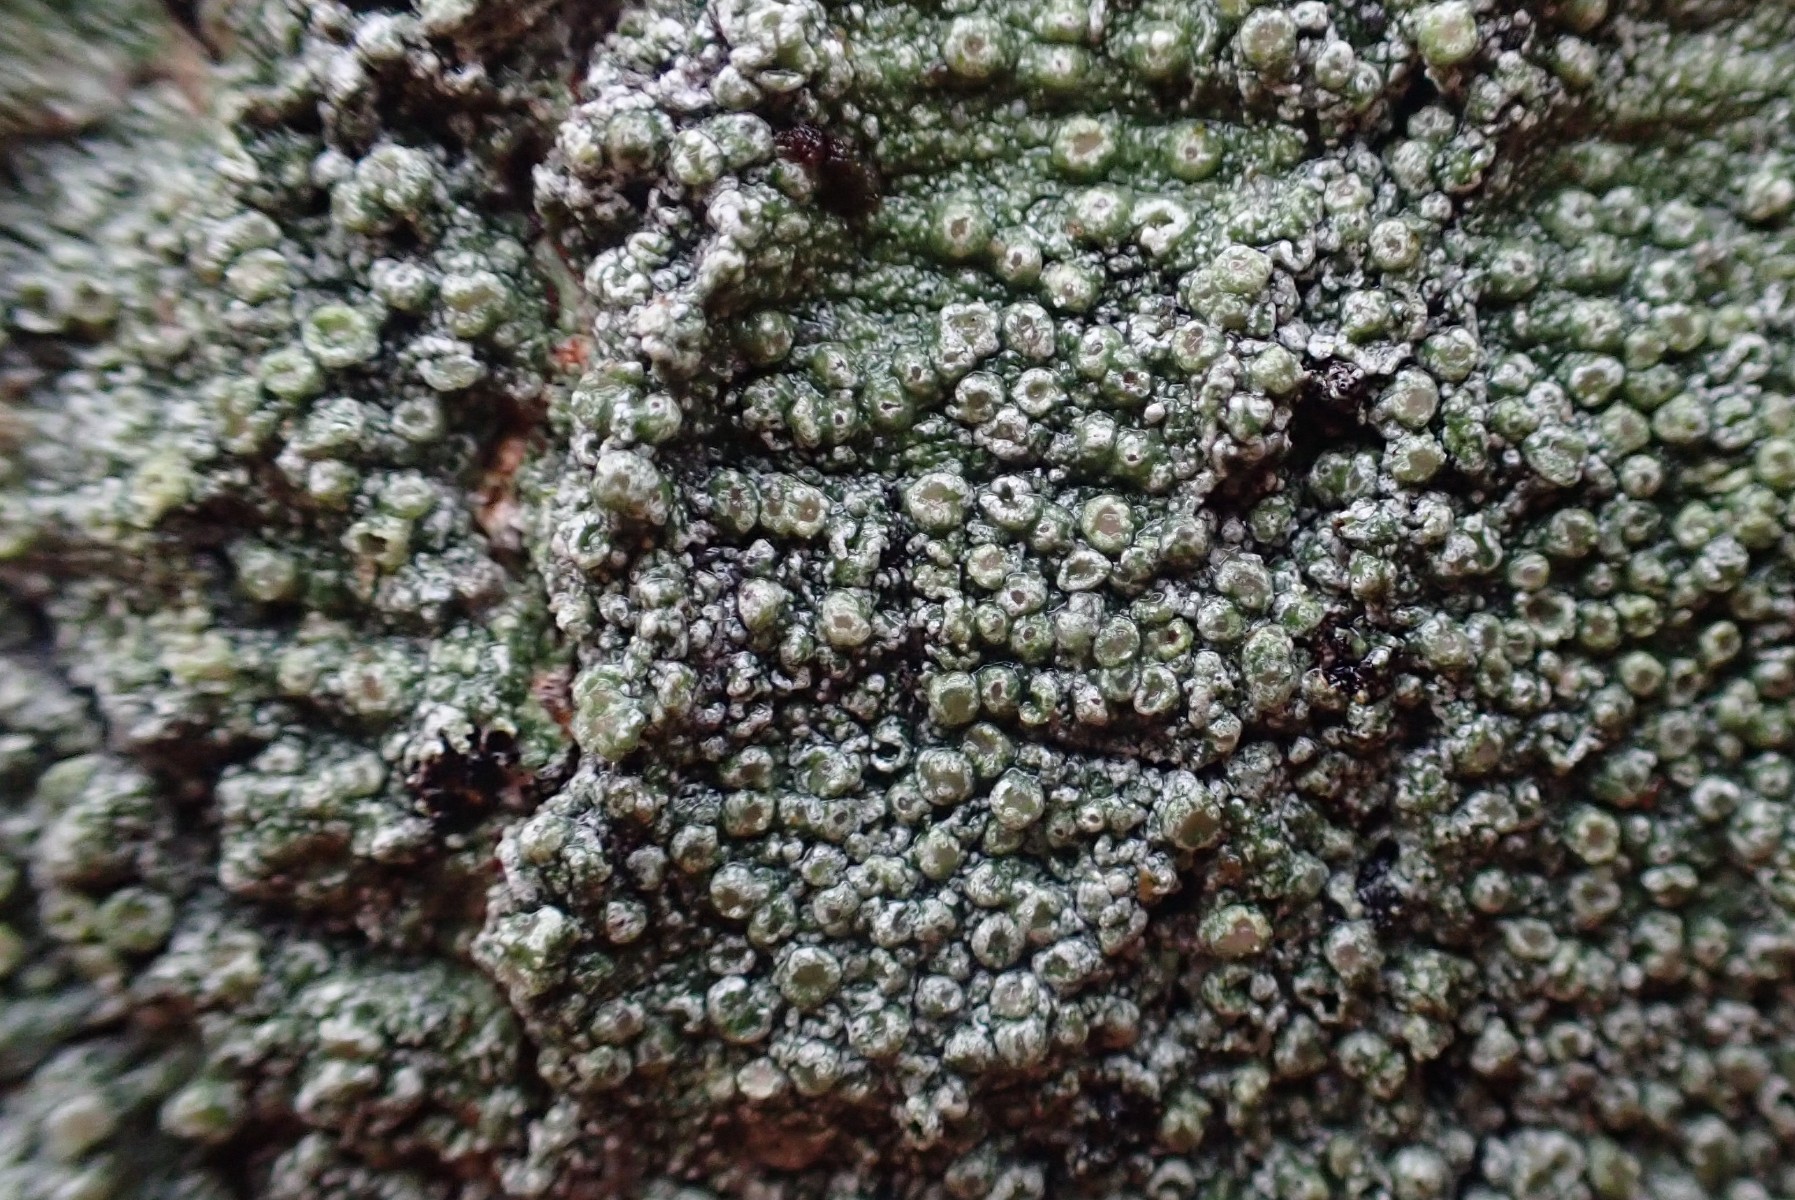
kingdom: Fungi
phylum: Ascomycota
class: Lecanoromycetes
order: Pertusariales
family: Pertusariaceae
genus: Pertusaria
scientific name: Pertusaria hymenea
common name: åben prikvortelav
